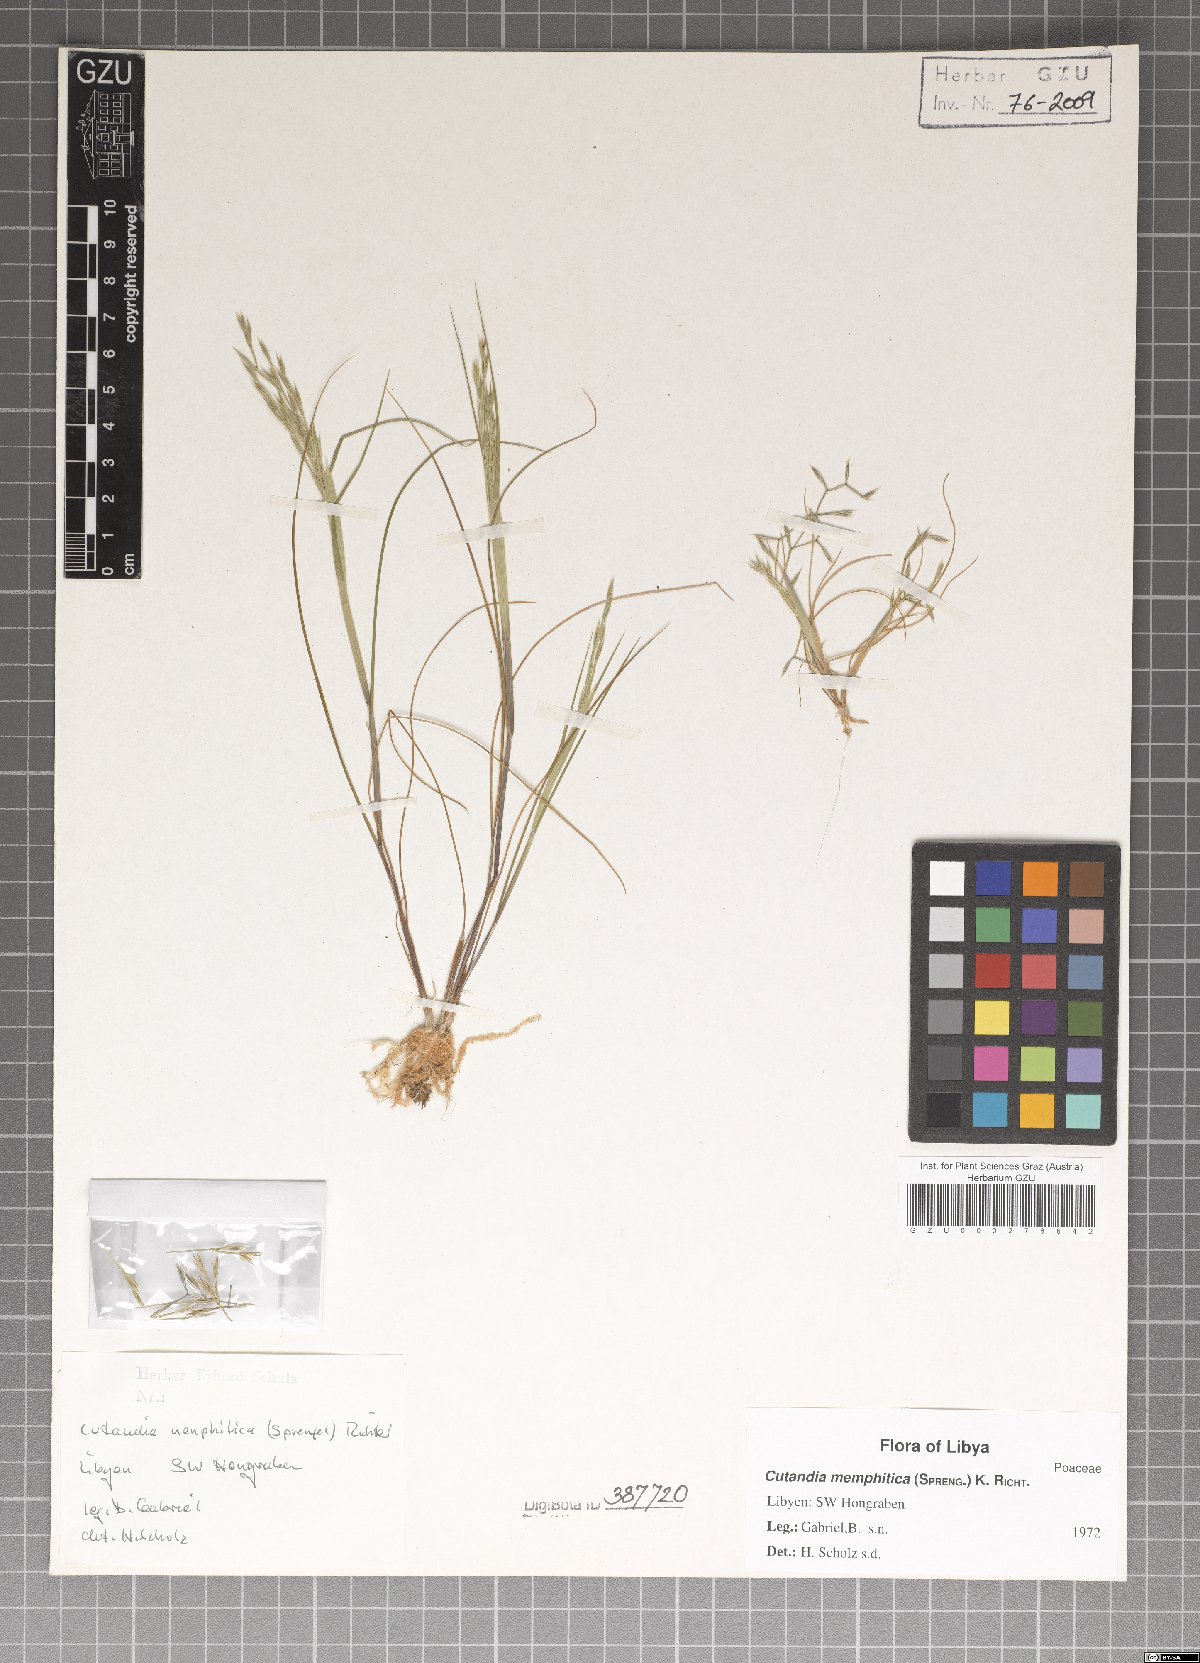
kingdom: Plantae
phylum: Tracheophyta
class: Liliopsida
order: Poales
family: Poaceae
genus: Cutandia
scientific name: Cutandia memphitica
